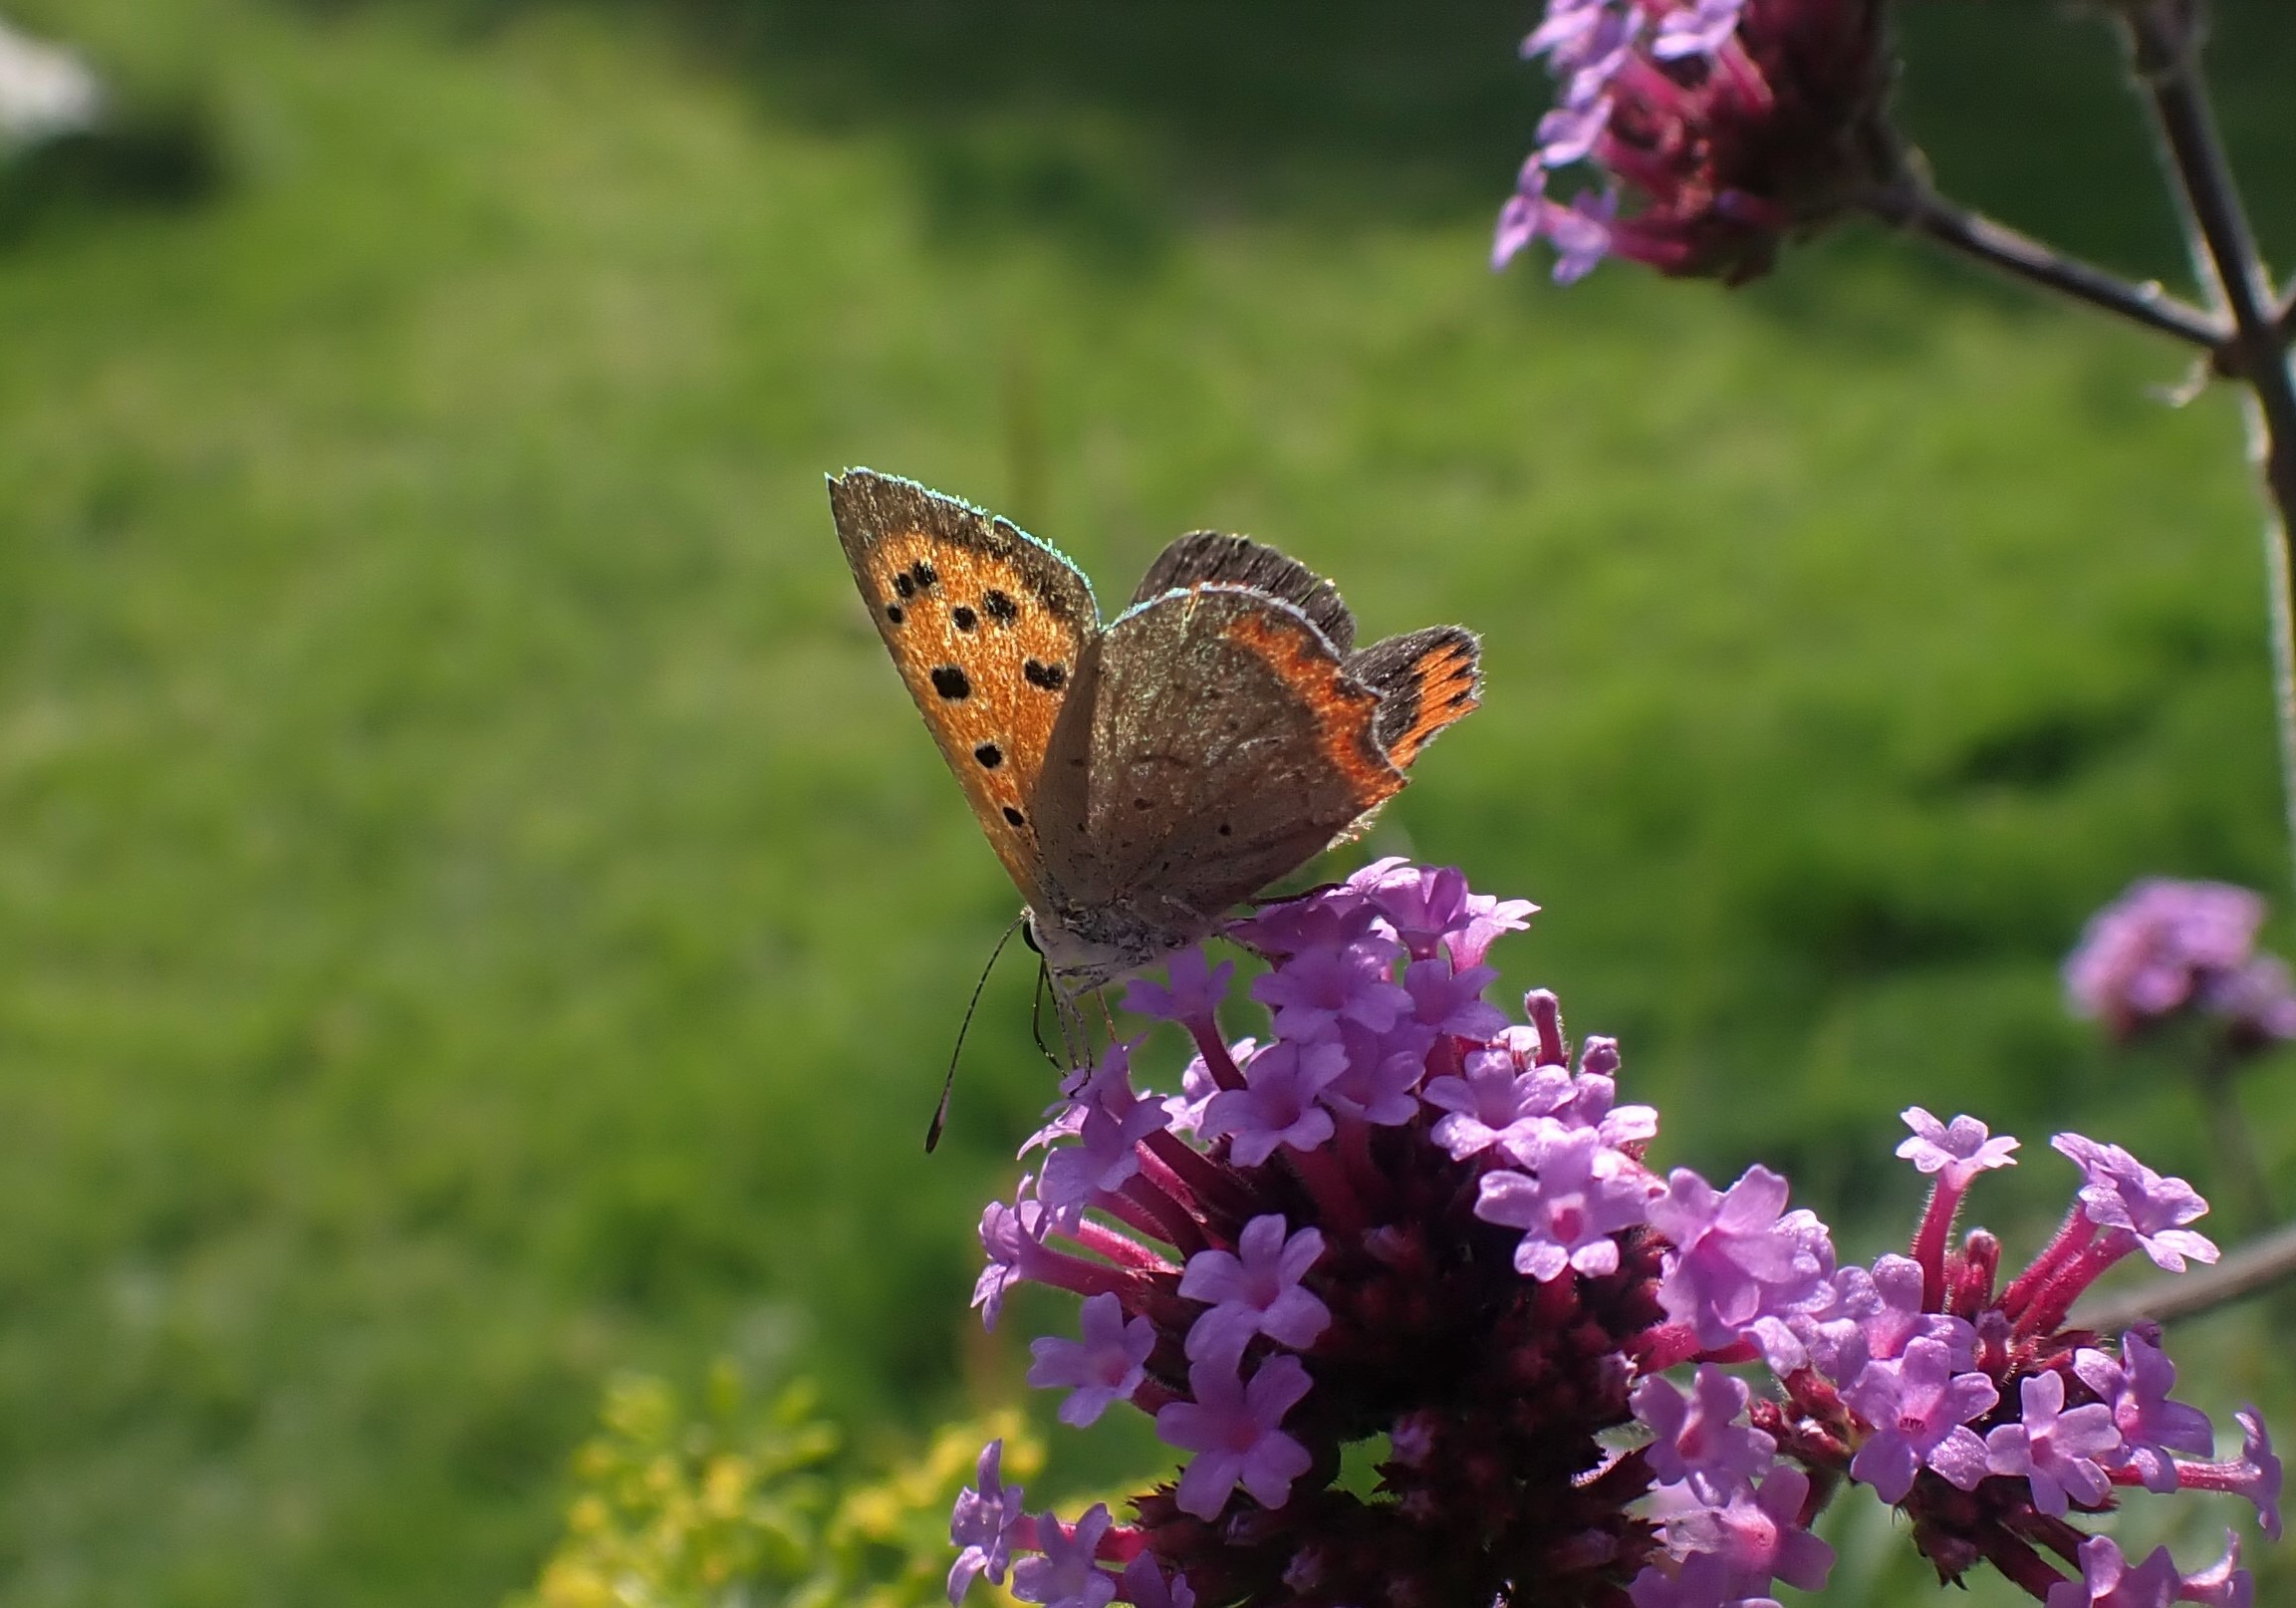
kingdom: Animalia
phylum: Arthropoda
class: Insecta
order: Lepidoptera
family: Lycaenidae
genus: Lycaena
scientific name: Lycaena phlaeas
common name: Lille ildfugl
